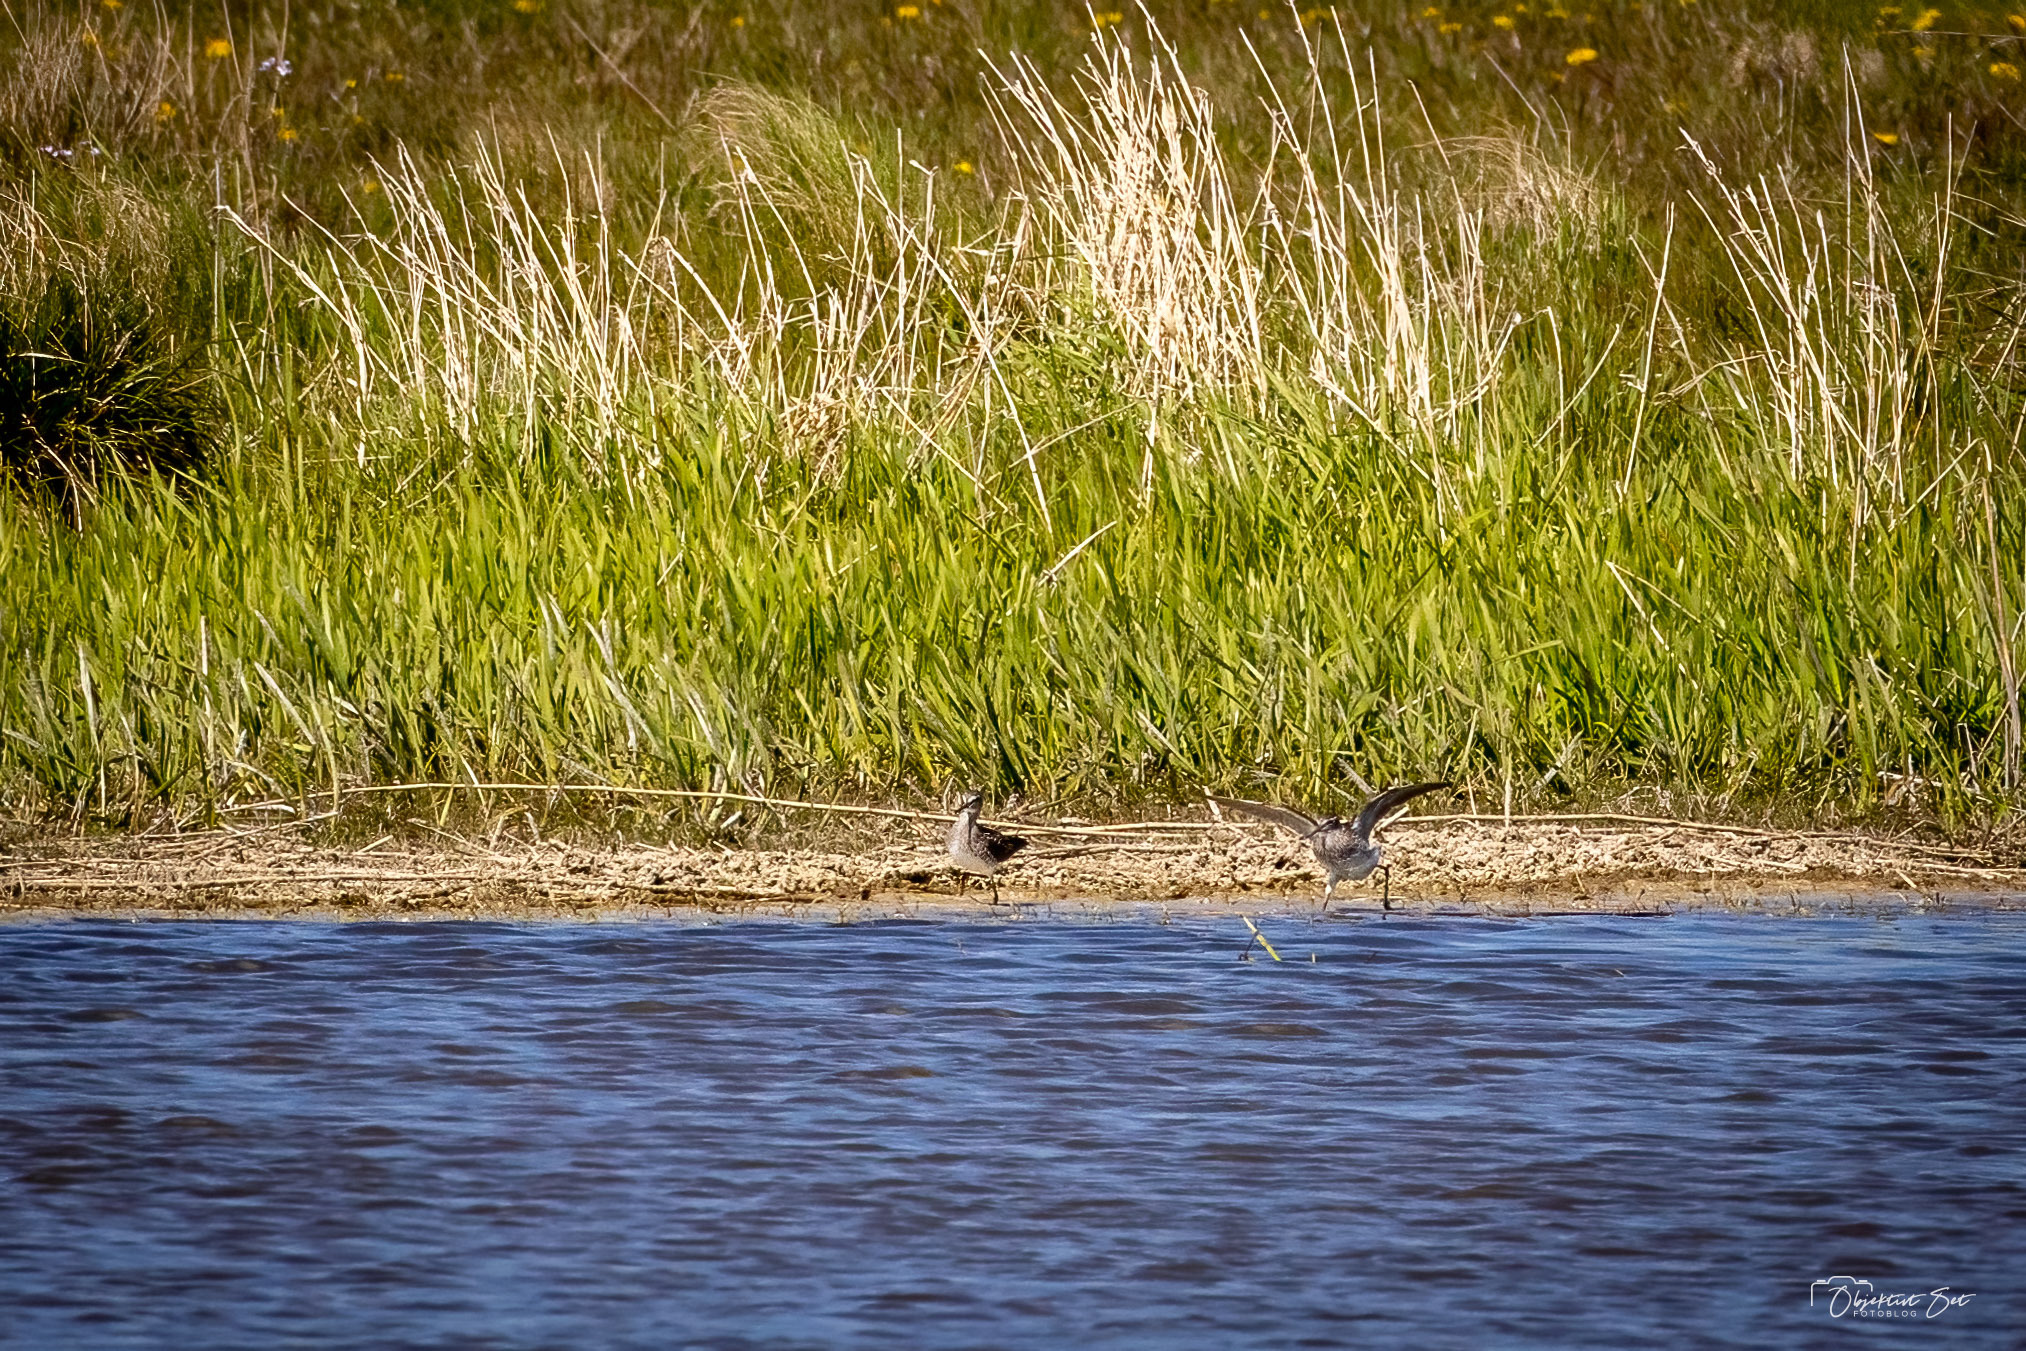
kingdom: Animalia
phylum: Chordata
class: Aves
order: Charadriiformes
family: Scolopacidae
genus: Tringa
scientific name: Tringa glareola
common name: Tinksmed
